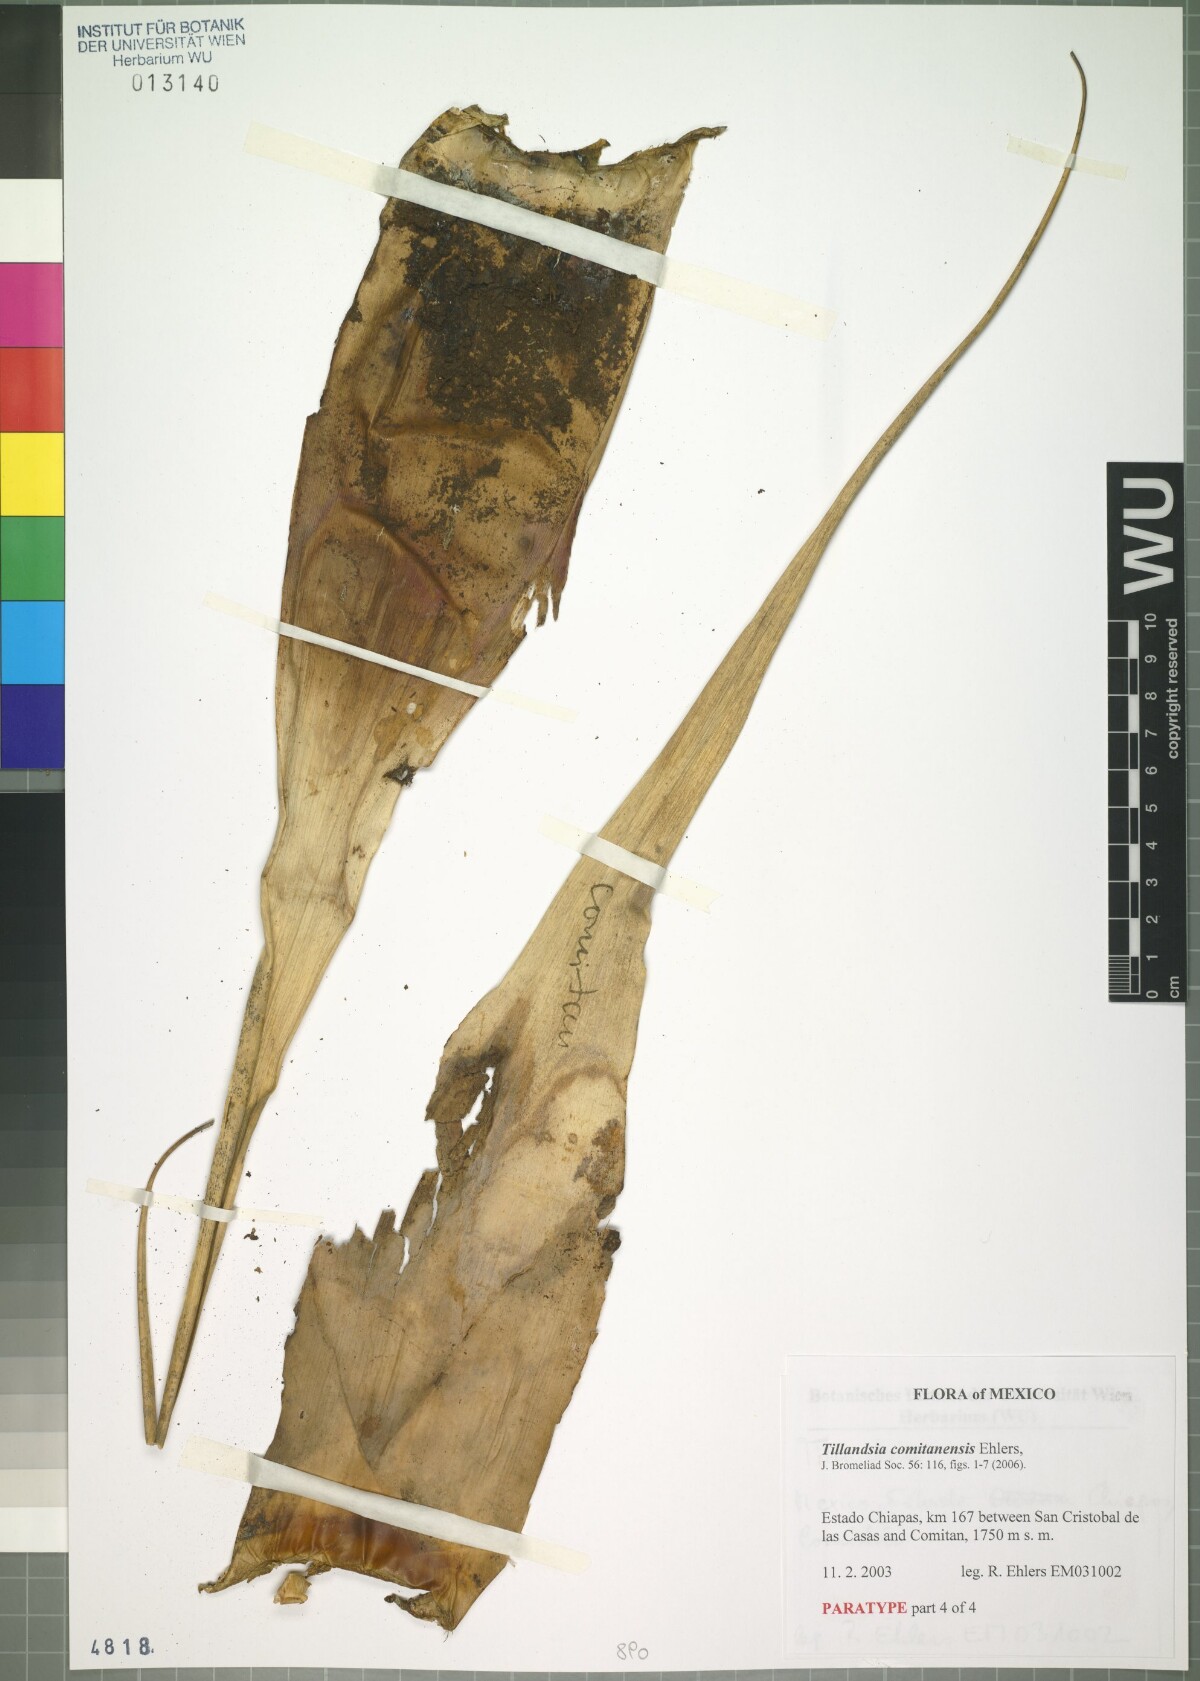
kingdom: Plantae
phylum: Tracheophyta
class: Liliopsida
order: Poales
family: Bromeliaceae
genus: Tillandsia
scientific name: Tillandsia comitanensis
